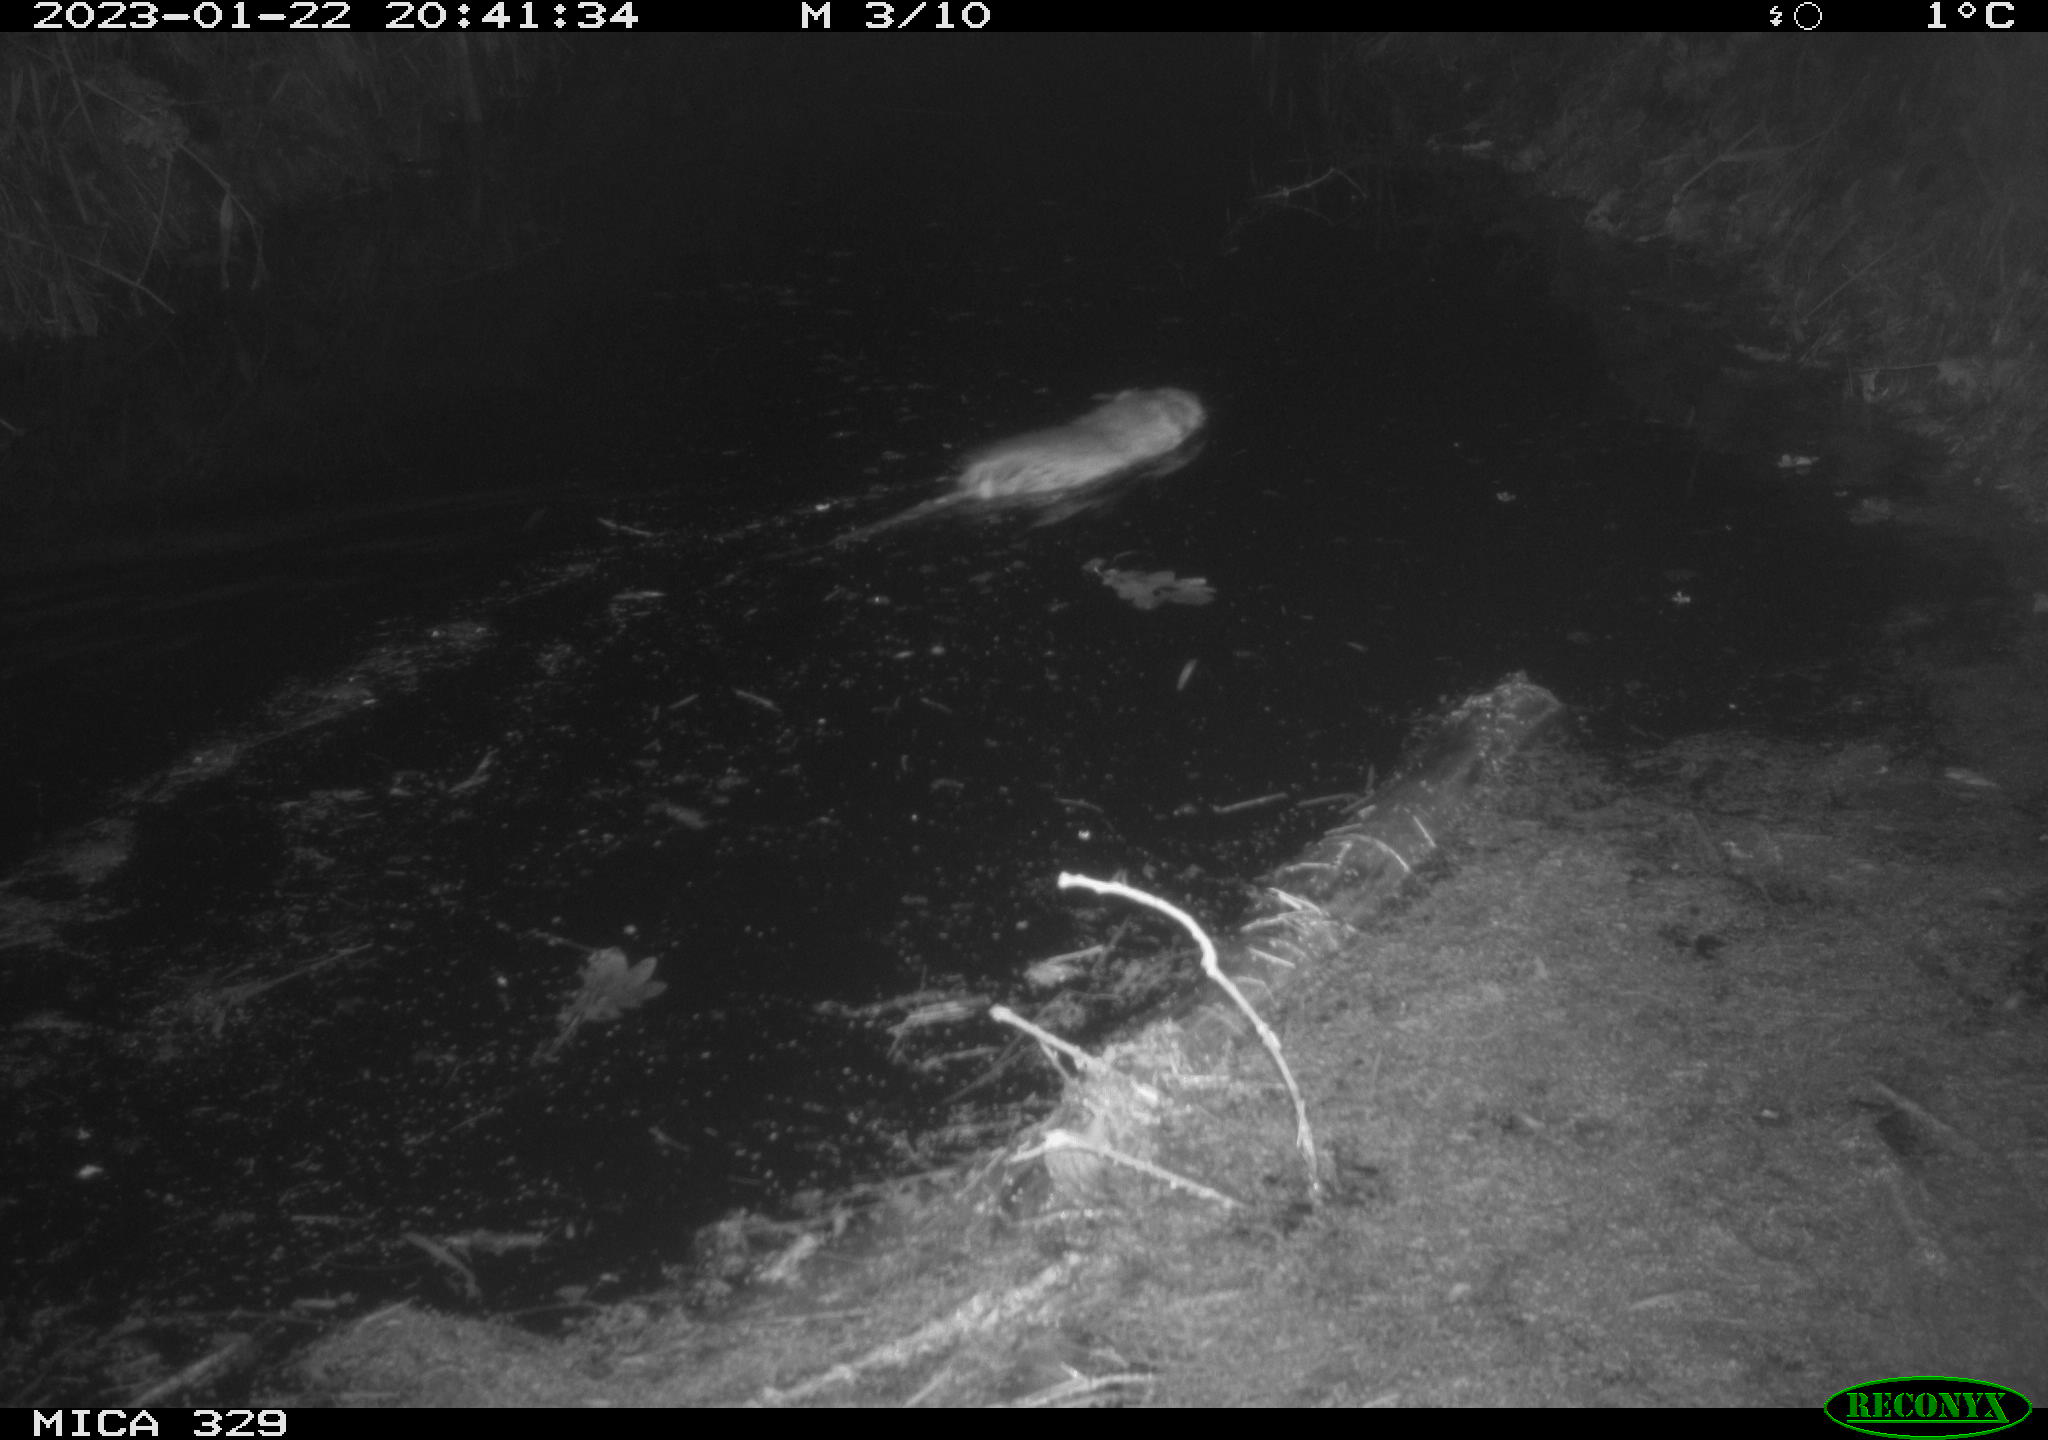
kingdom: Animalia
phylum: Chordata
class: Mammalia
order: Rodentia
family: Cricetidae
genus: Ondatra
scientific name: Ondatra zibethicus
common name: Muskrat
